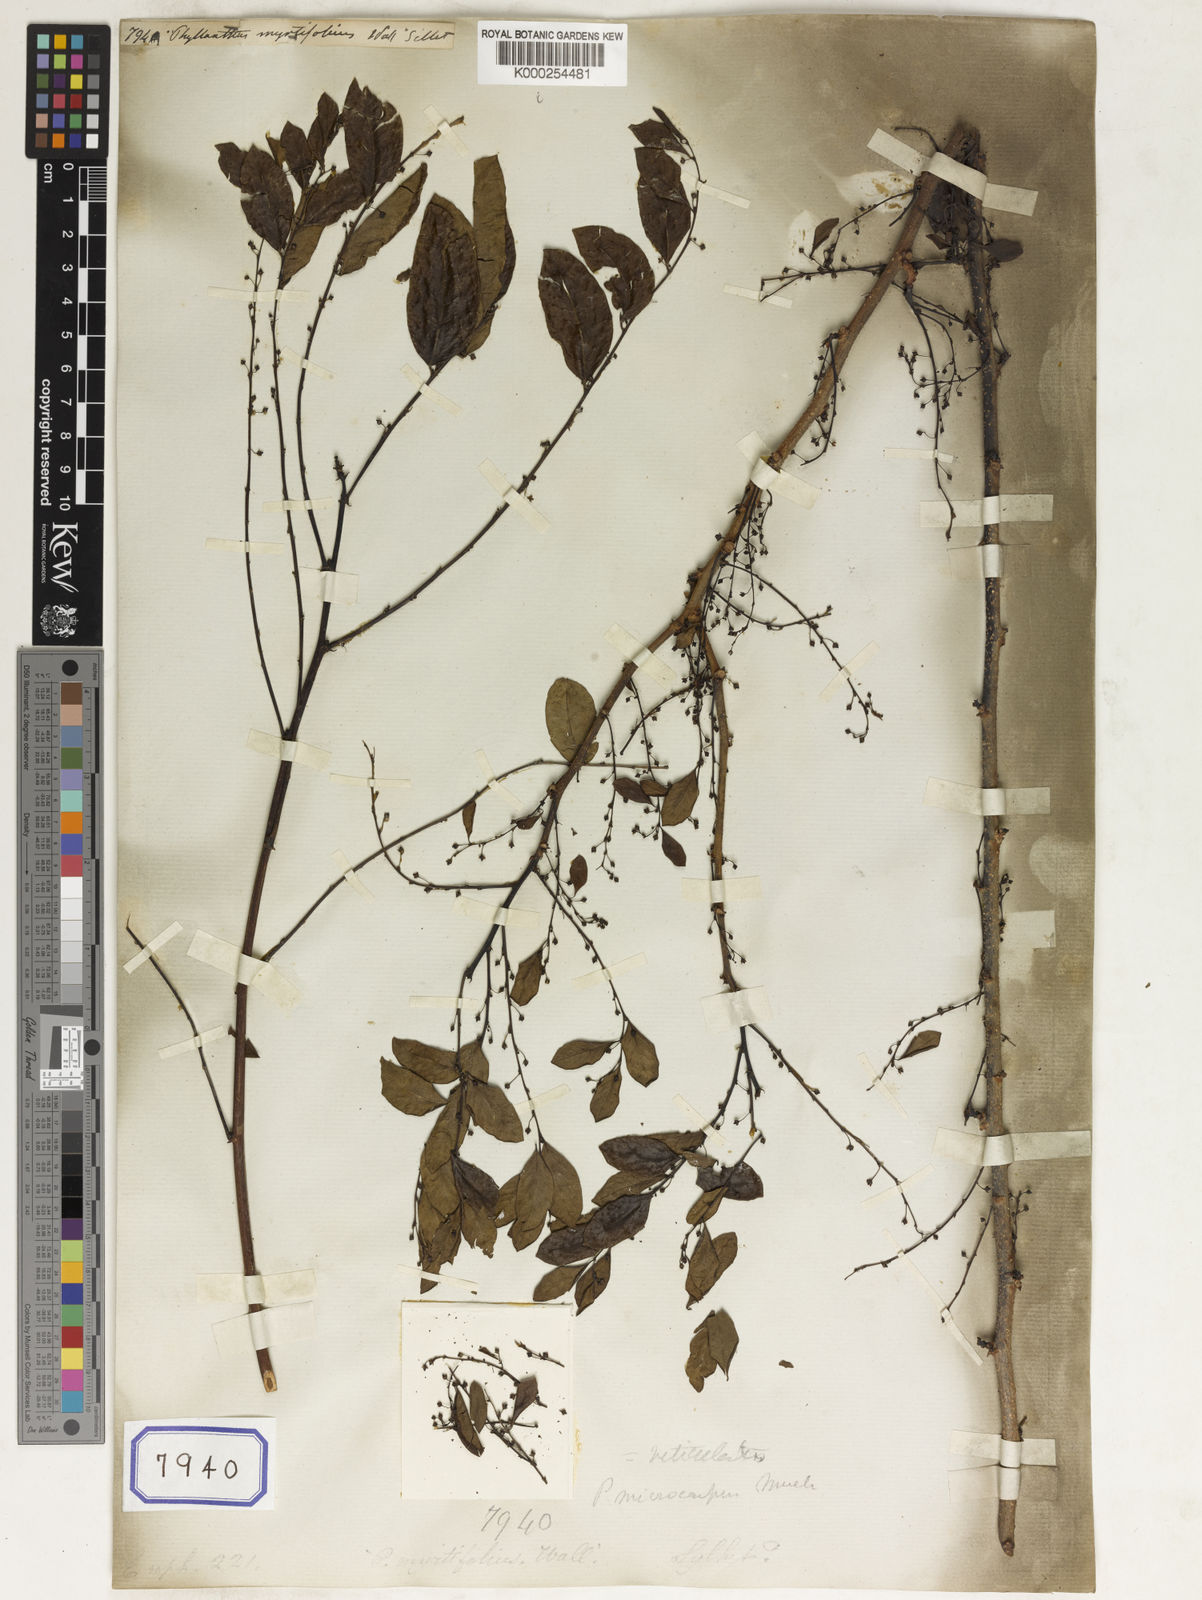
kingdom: Plantae
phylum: Tracheophyta
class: Magnoliopsida
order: Malpighiales
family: Phyllanthaceae
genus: Phyllanthus
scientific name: Phyllanthus
